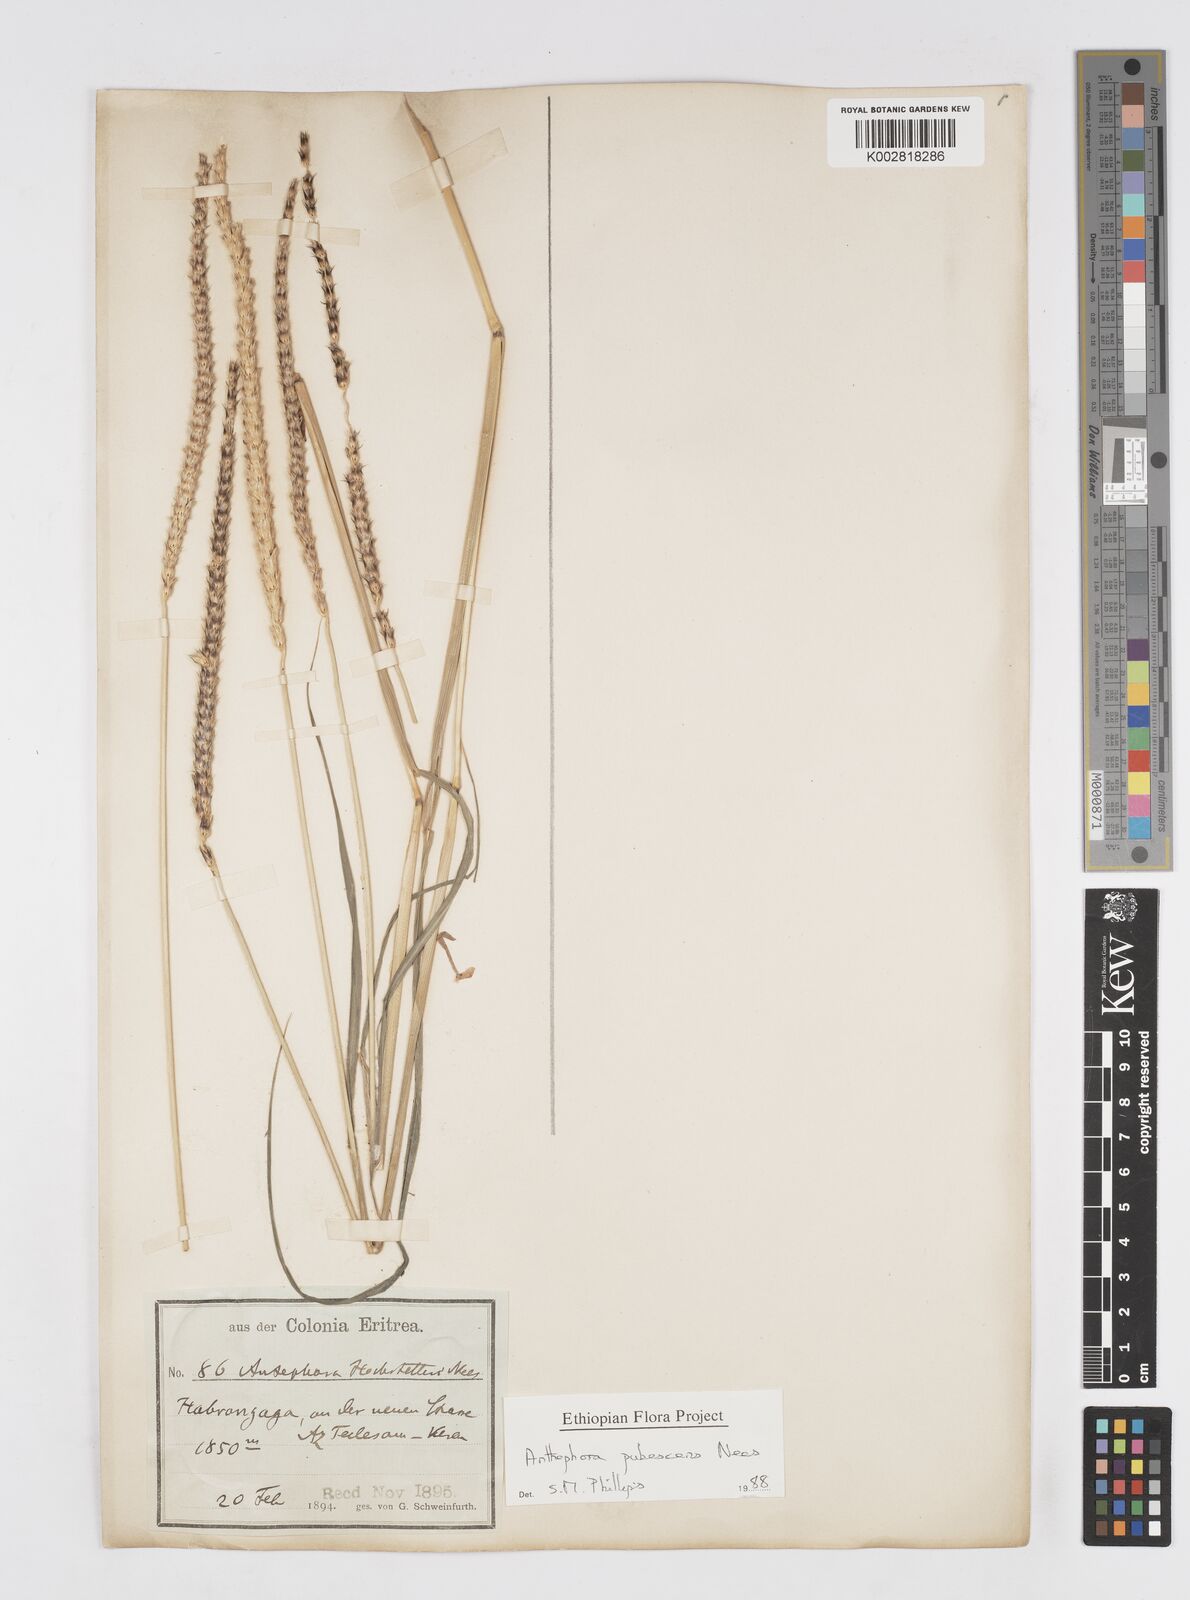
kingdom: Plantae
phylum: Tracheophyta
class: Liliopsida
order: Poales
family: Poaceae
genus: Anthephora
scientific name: Anthephora pubescens
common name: Wool grass
